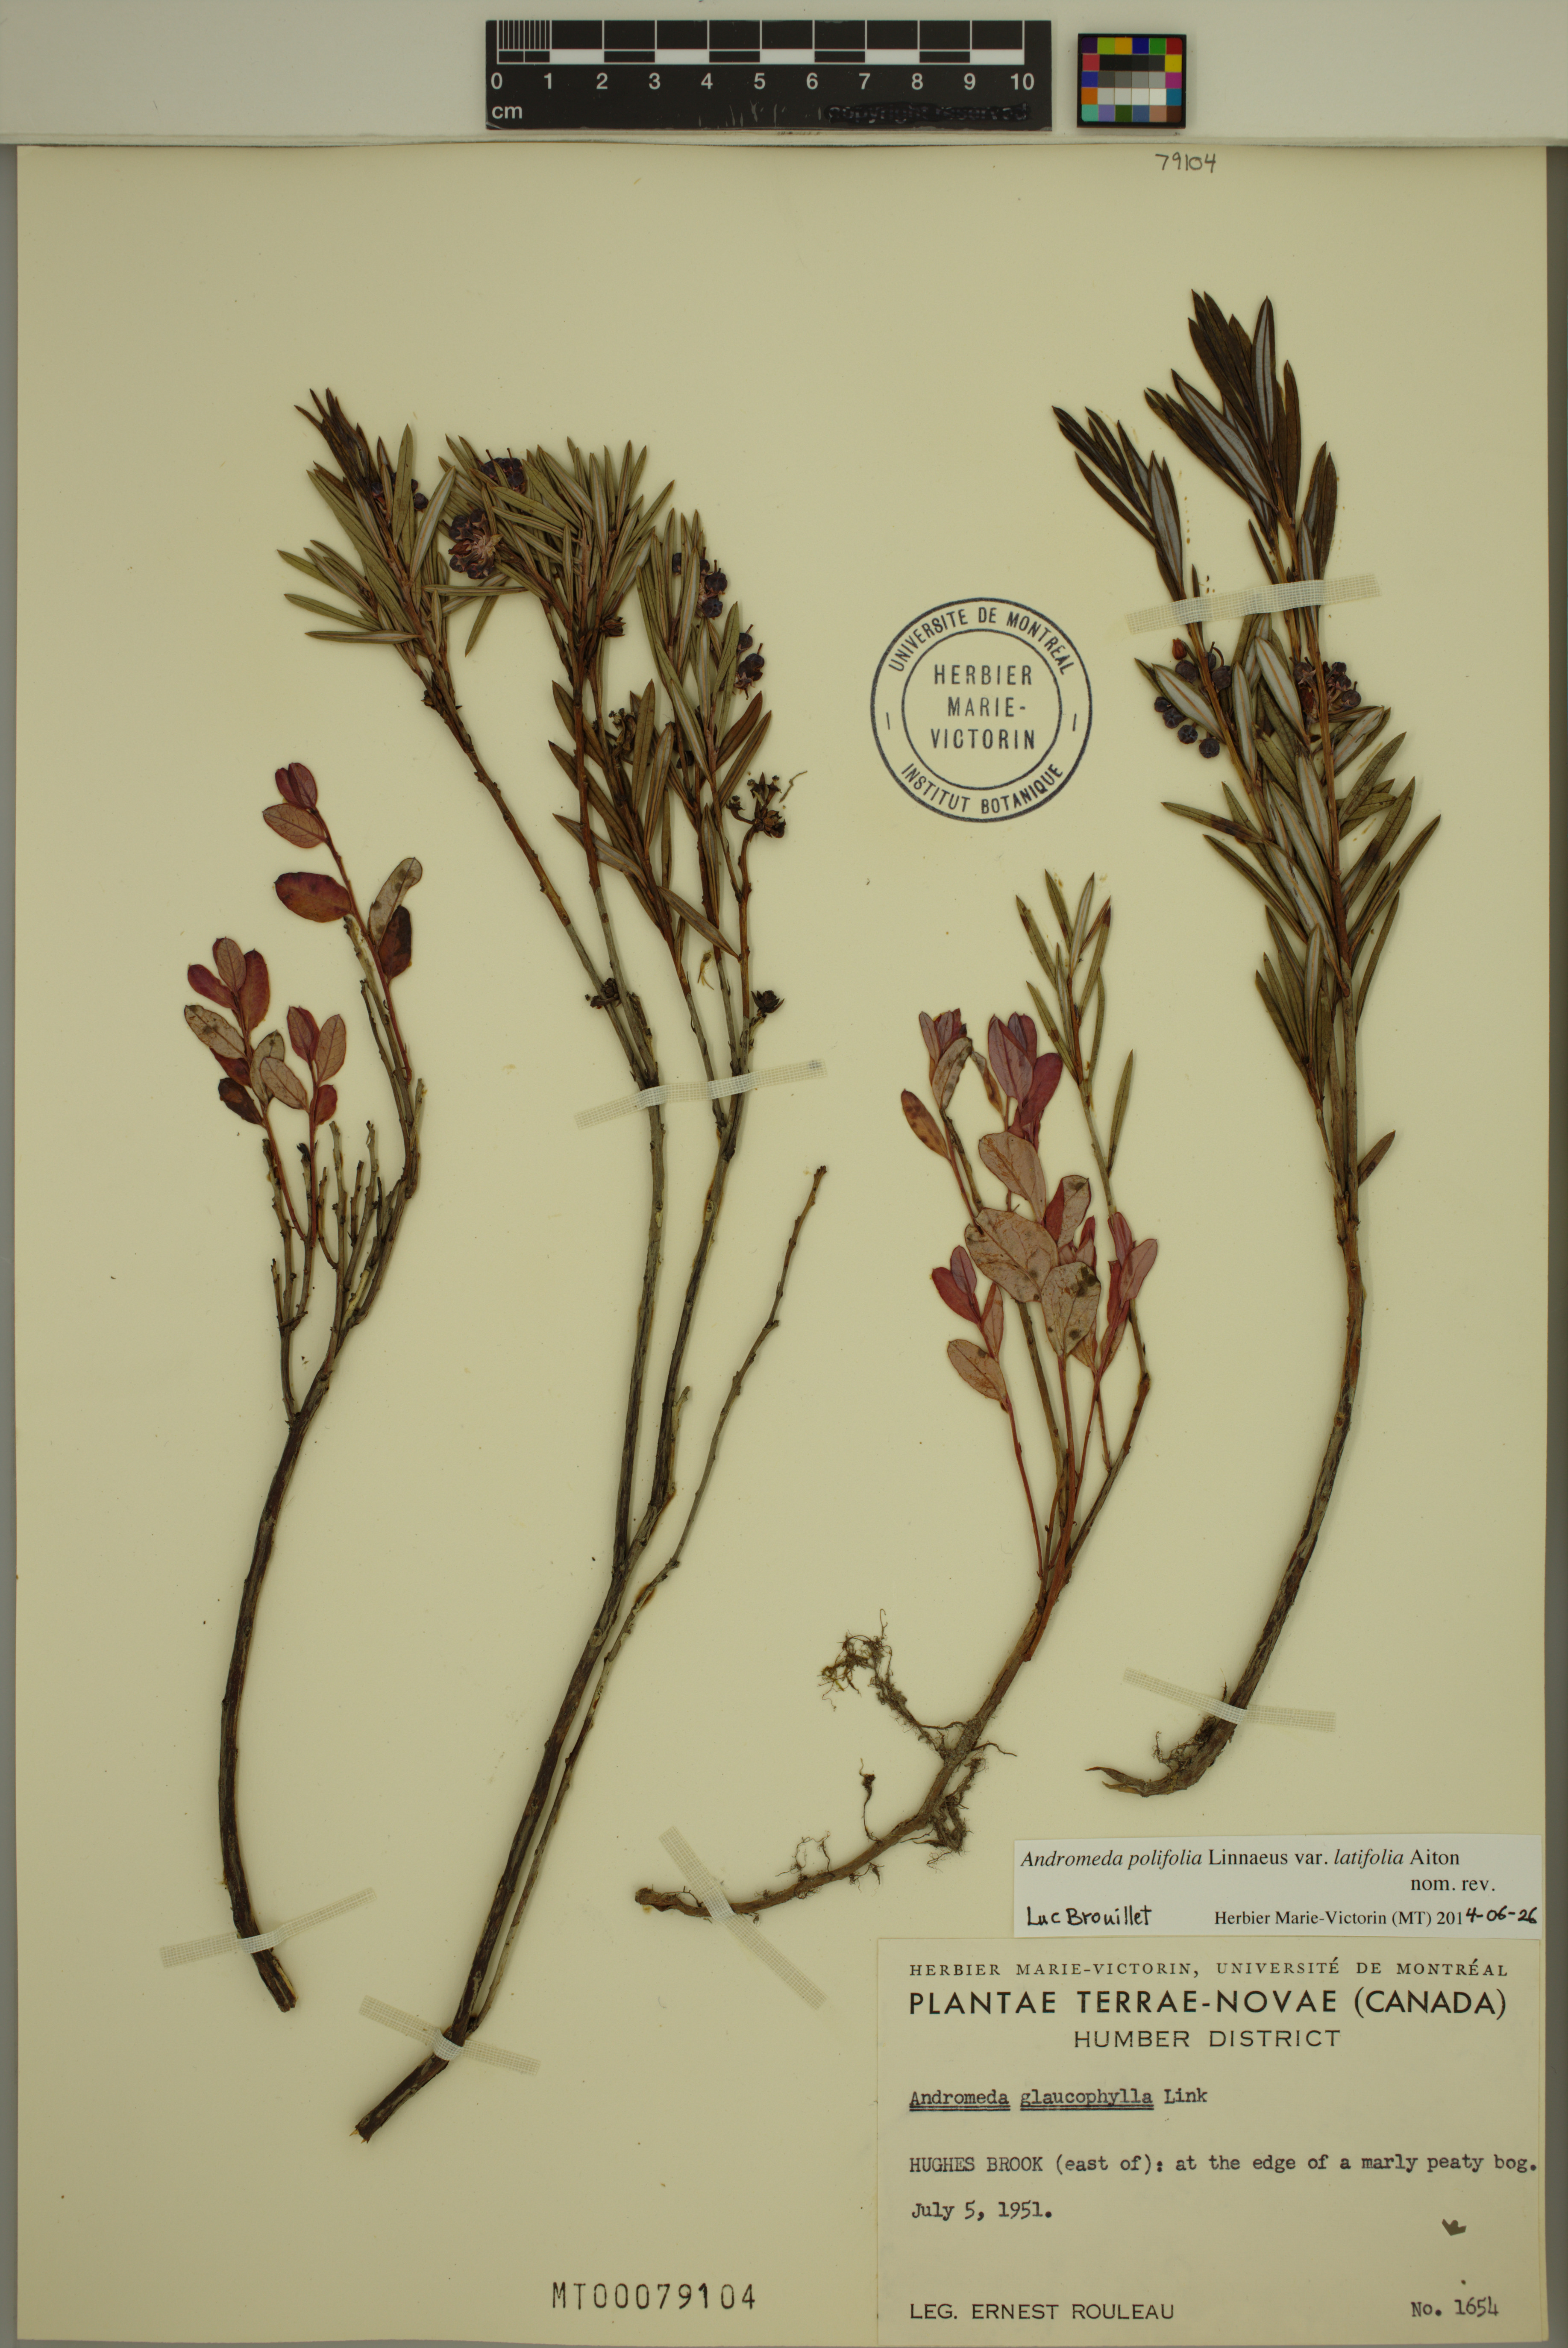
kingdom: Plantae
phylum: Tracheophyta
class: Magnoliopsida
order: Ericales
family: Ericaceae
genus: Andromeda
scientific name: Andromeda polifolia
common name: Bog-rosemary
